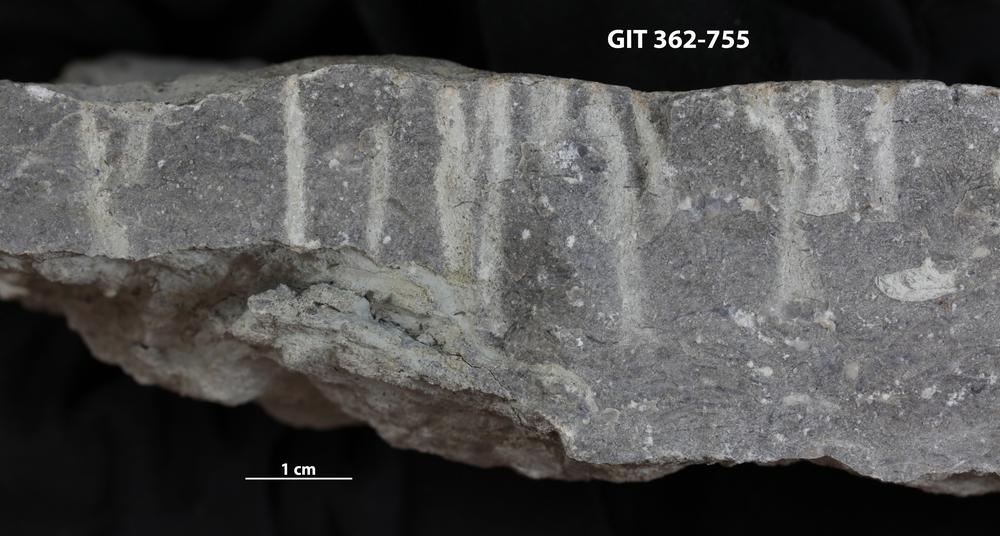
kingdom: Animalia
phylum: Mollusca
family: Siphonichnidae
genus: Skolithos
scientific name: Skolithos
